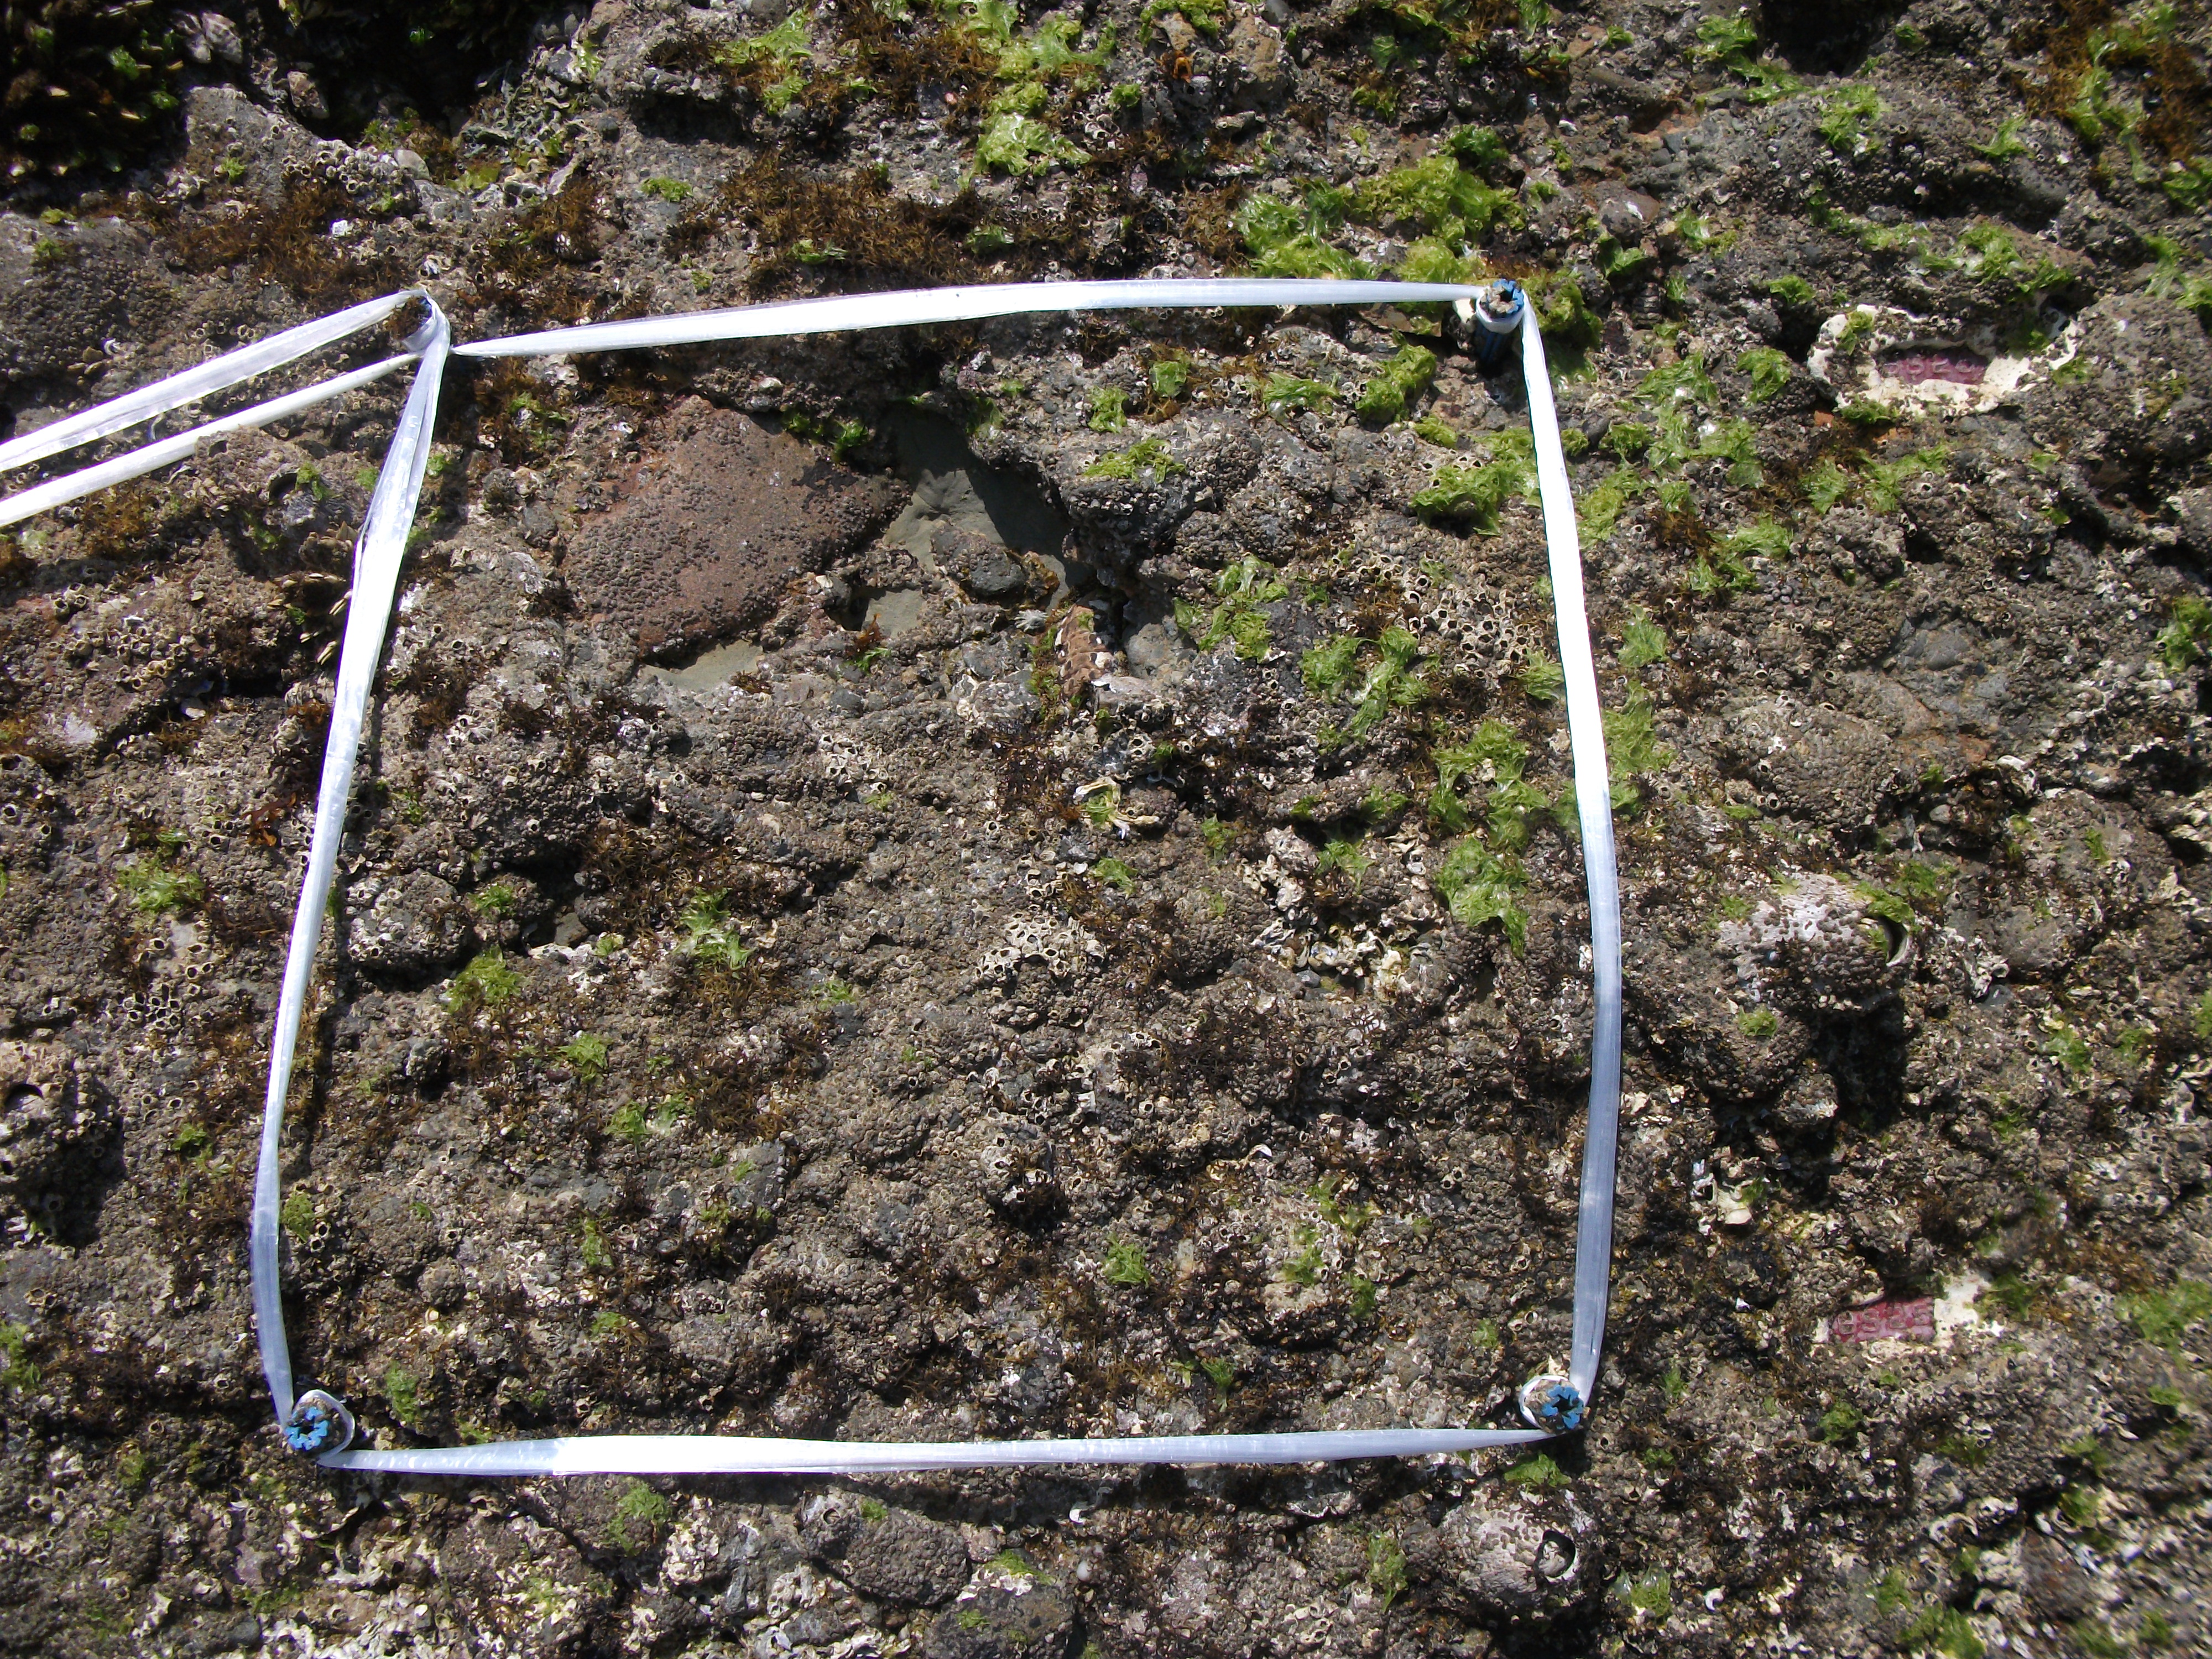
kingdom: Animalia
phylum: Arthropoda
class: Maxillopoda
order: Sessilia
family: Chthamalidae
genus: Chthamalus
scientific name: Chthamalus challengeri
